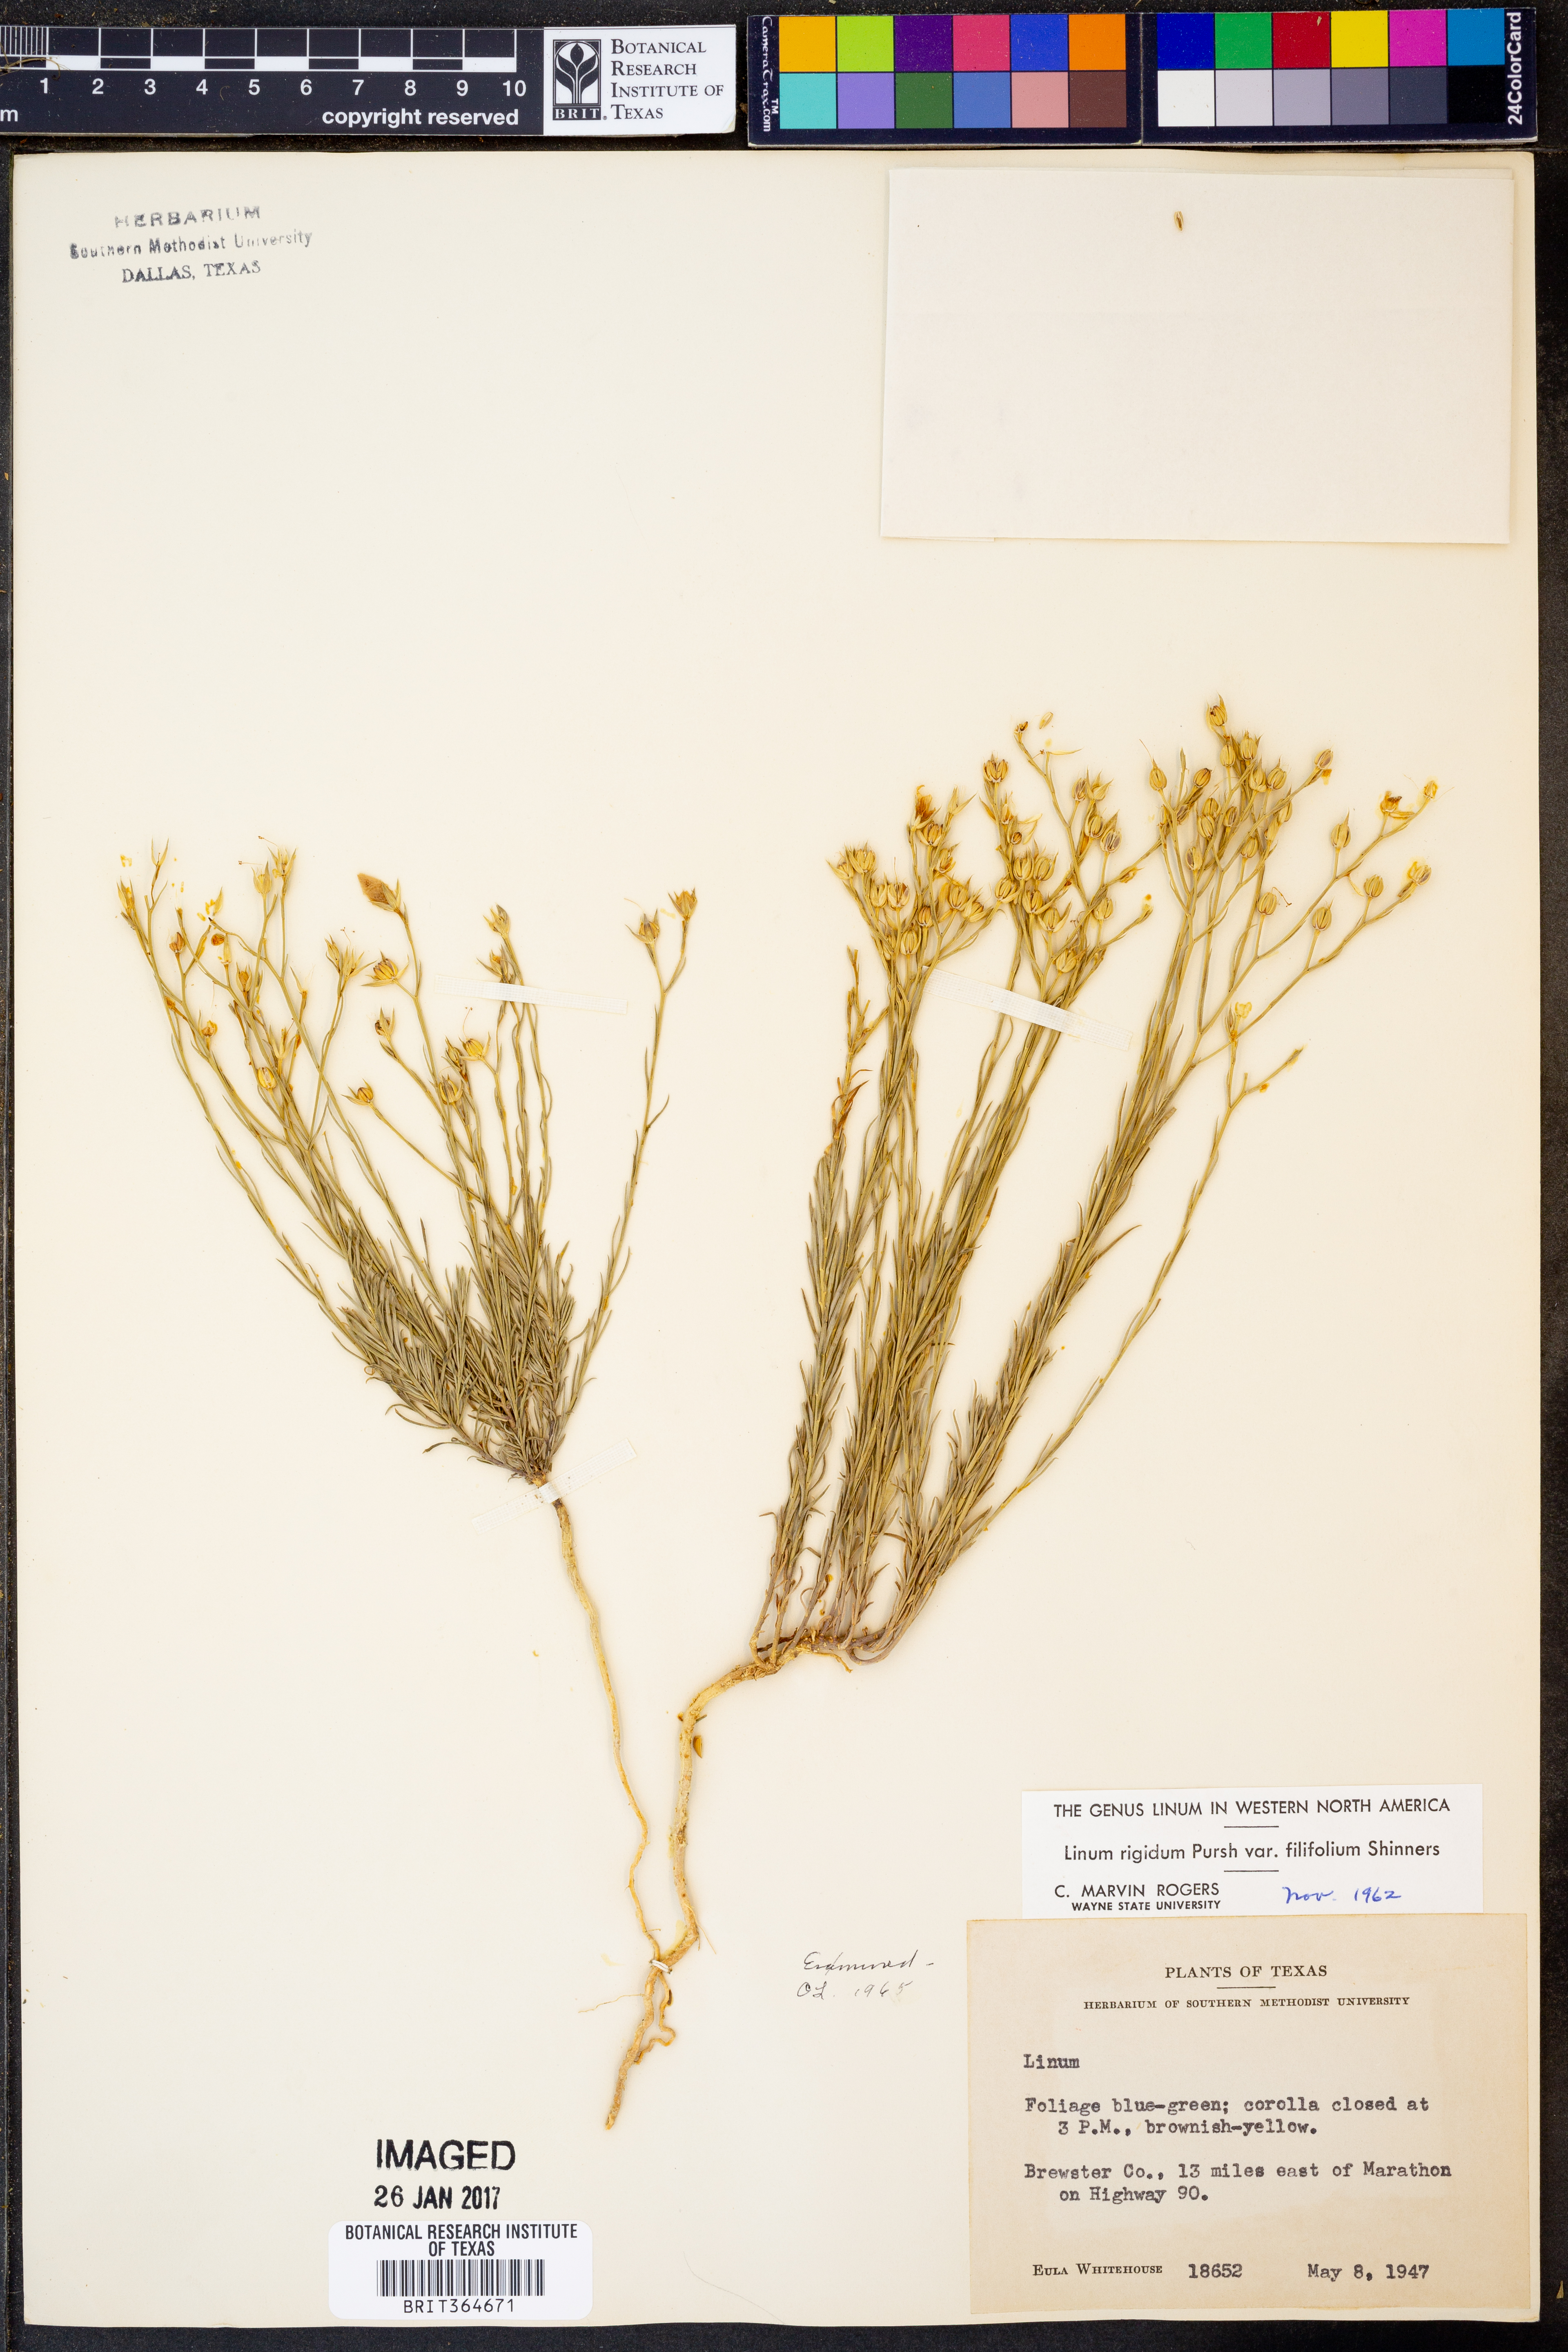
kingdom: Plantae
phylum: Tracheophyta
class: Magnoliopsida
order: Malpighiales
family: Linaceae
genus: Linum
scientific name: Linum berlandieri
